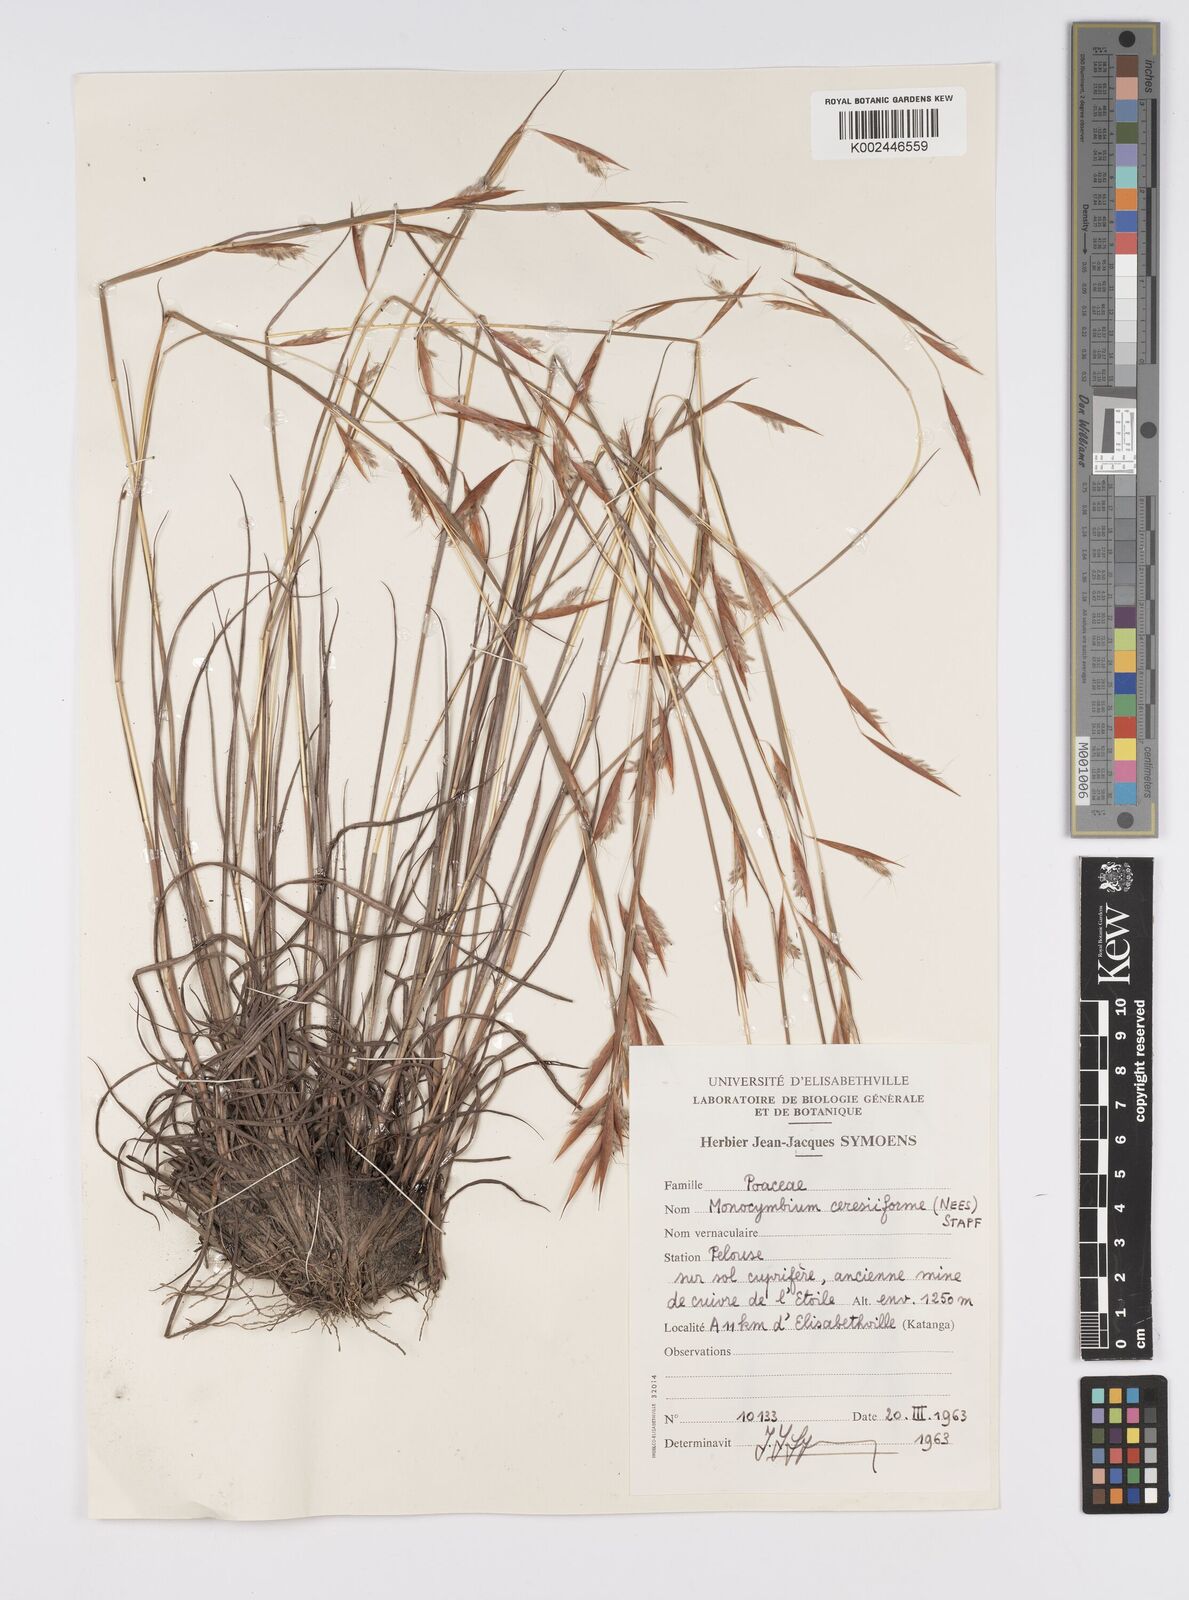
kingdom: Plantae
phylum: Tracheophyta
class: Liliopsida
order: Poales
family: Poaceae
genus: Monocymbium
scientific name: Monocymbium ceresiiforme
